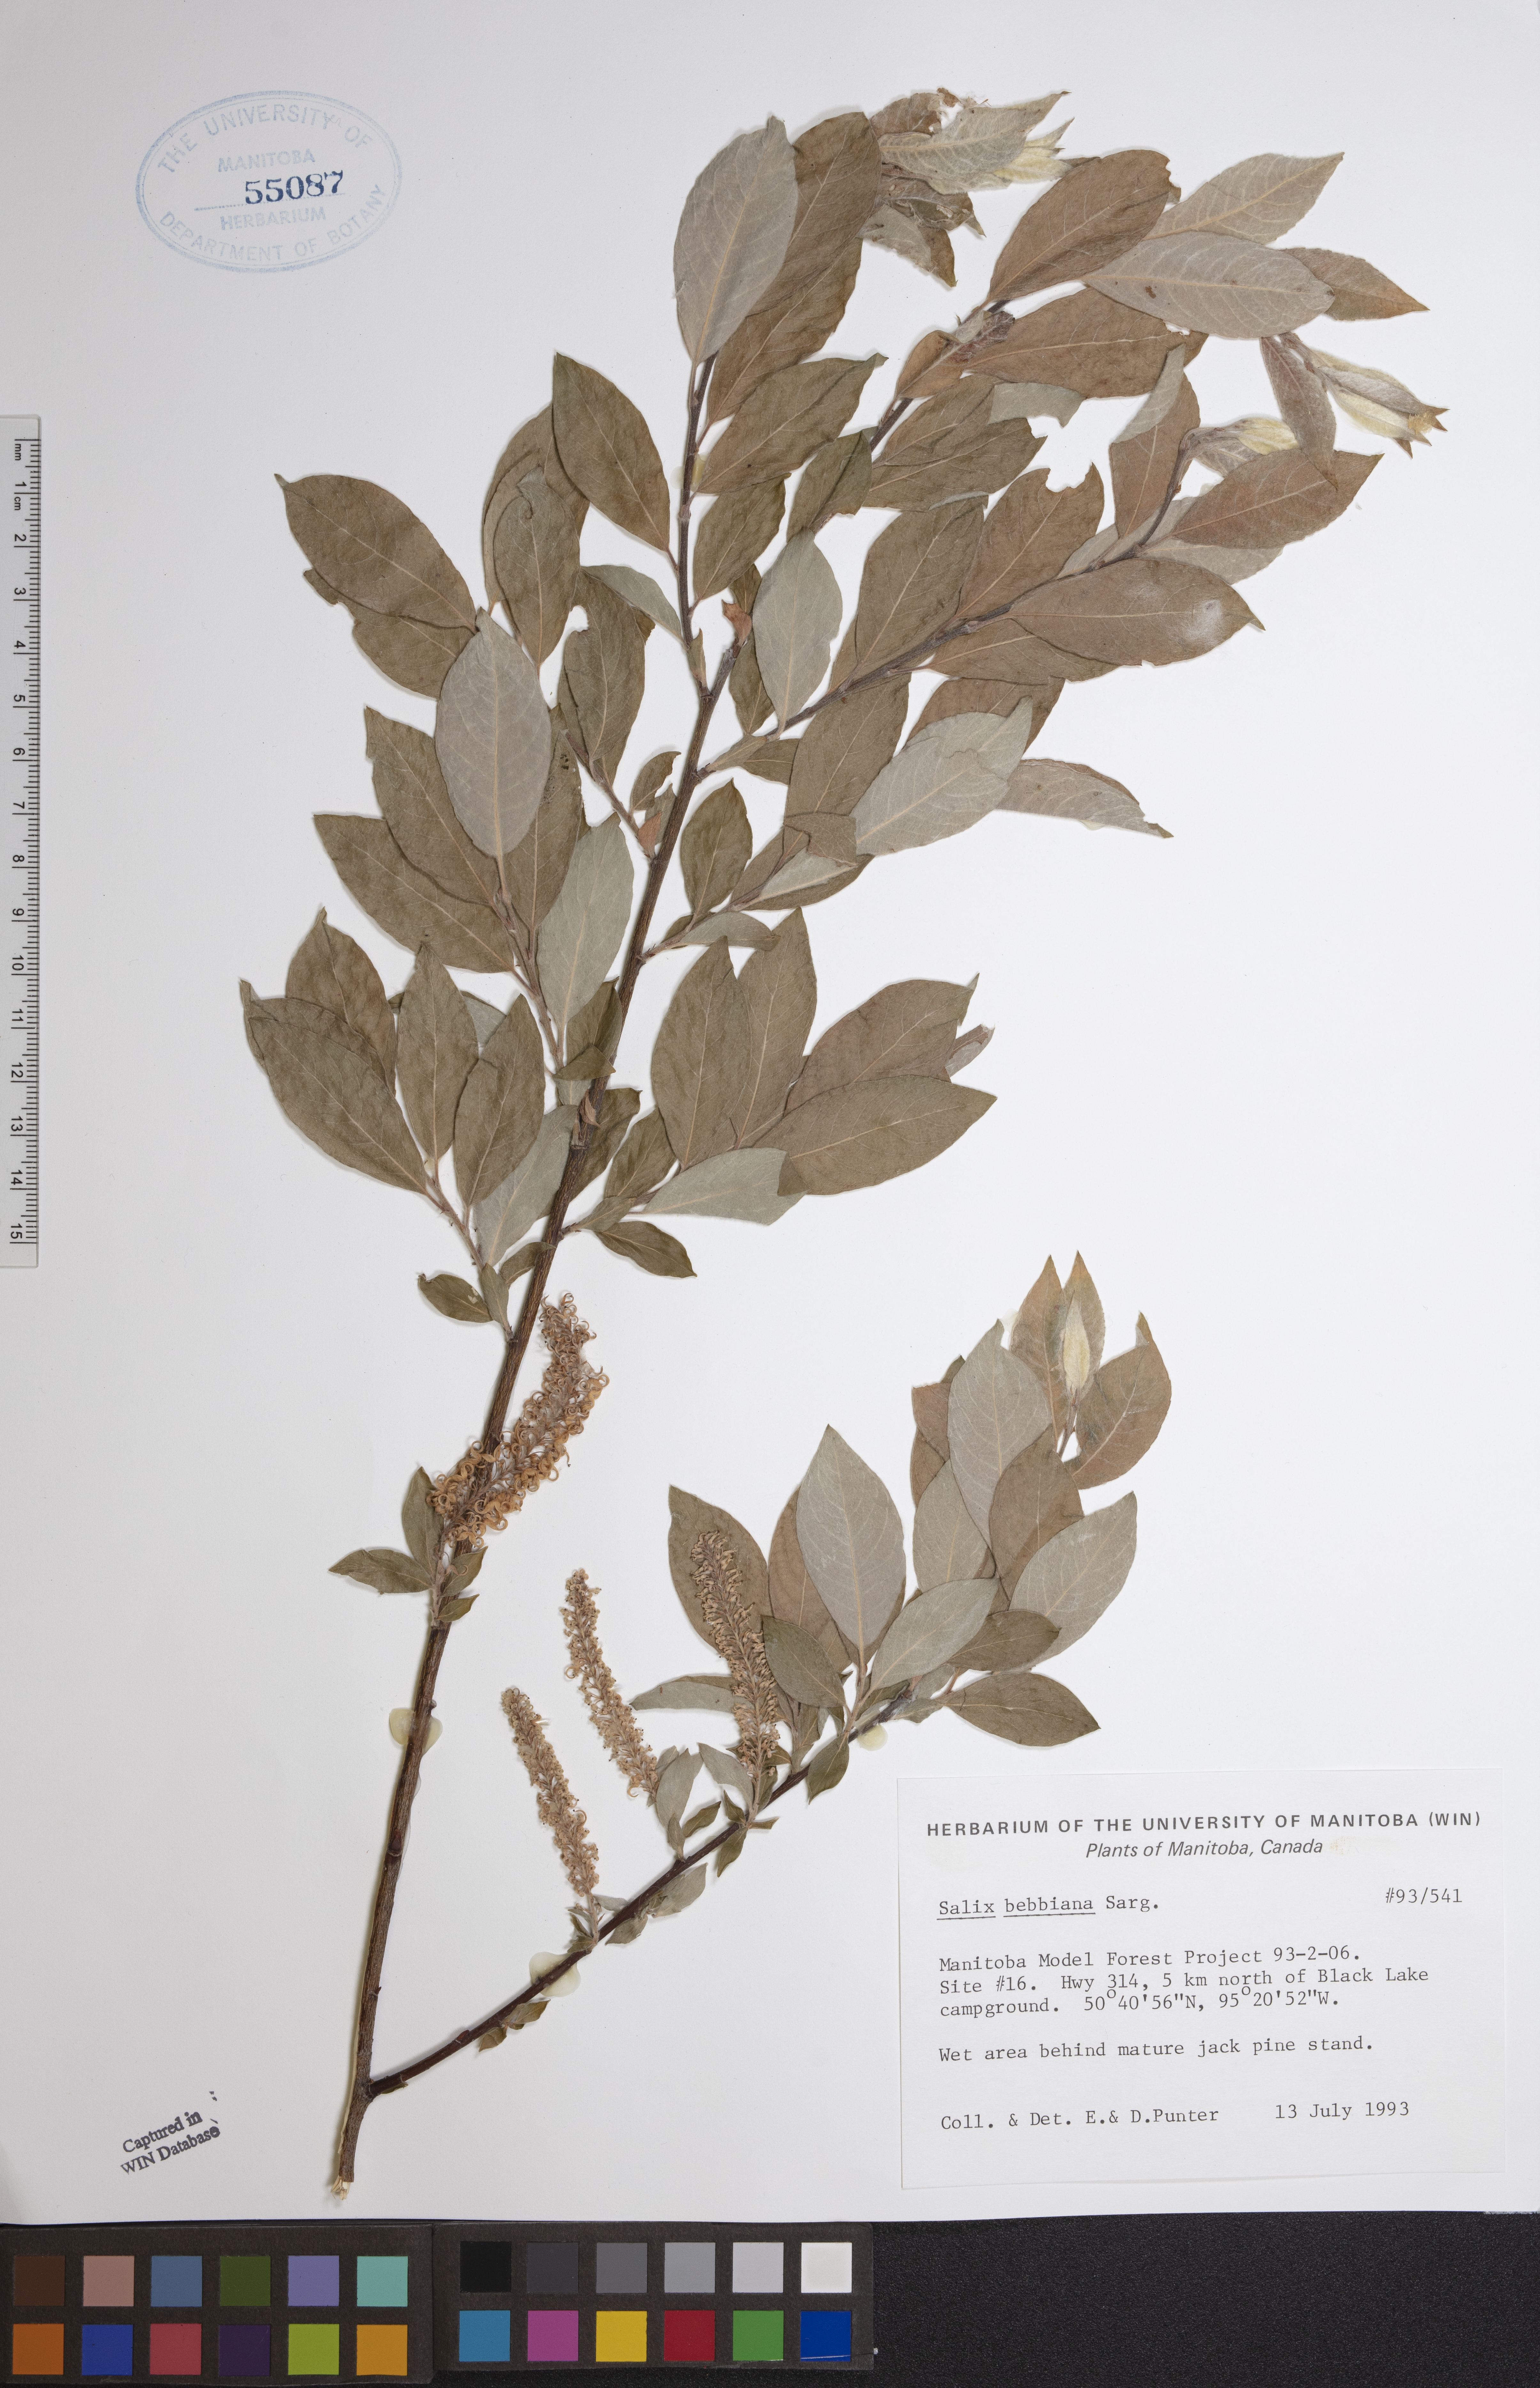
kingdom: Plantae
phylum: Tracheophyta
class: Magnoliopsida
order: Malpighiales
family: Salicaceae
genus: Salix
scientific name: Salix bebbiana
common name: Bebb's willow
